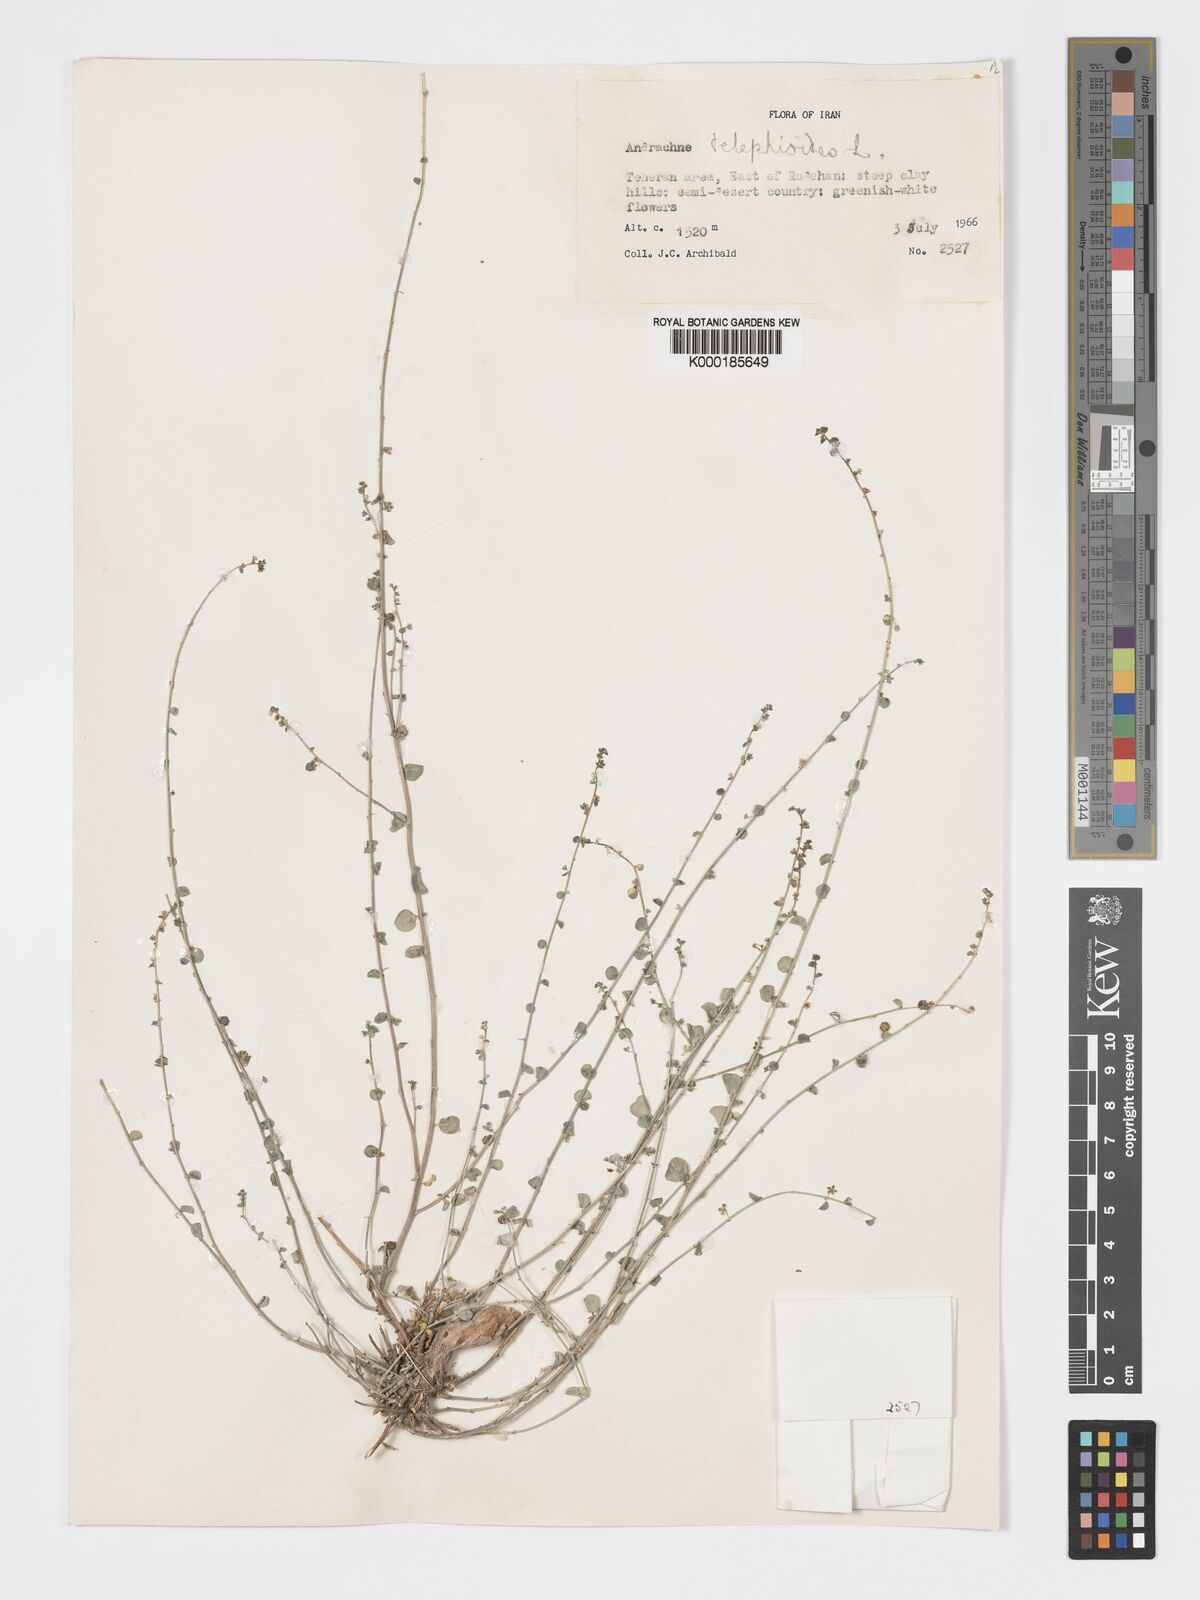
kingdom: Plantae
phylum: Tracheophyta
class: Magnoliopsida
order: Malpighiales
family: Phyllanthaceae
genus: Andrachne
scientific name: Andrachne telephioides
